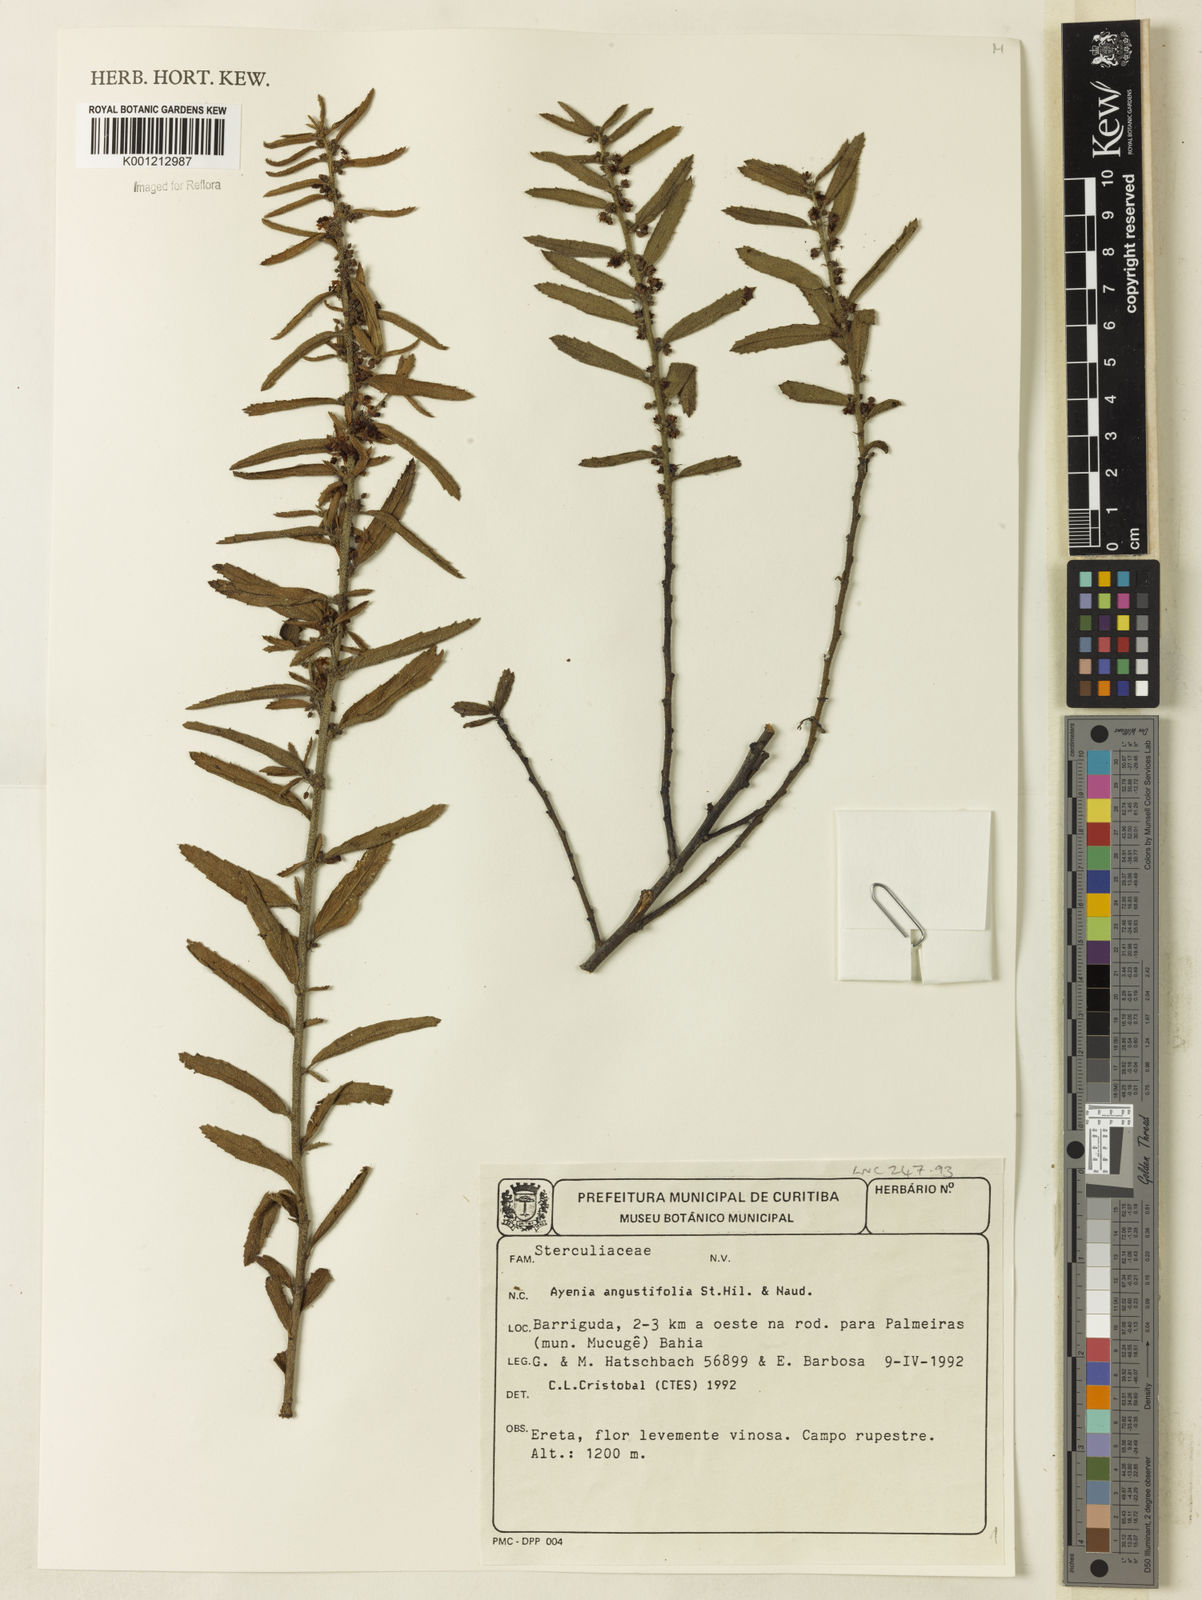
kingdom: Plantae
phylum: Tracheophyta
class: Magnoliopsida
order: Malvales
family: Malvaceae
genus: Ayenia
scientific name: Ayenia angustifolia
